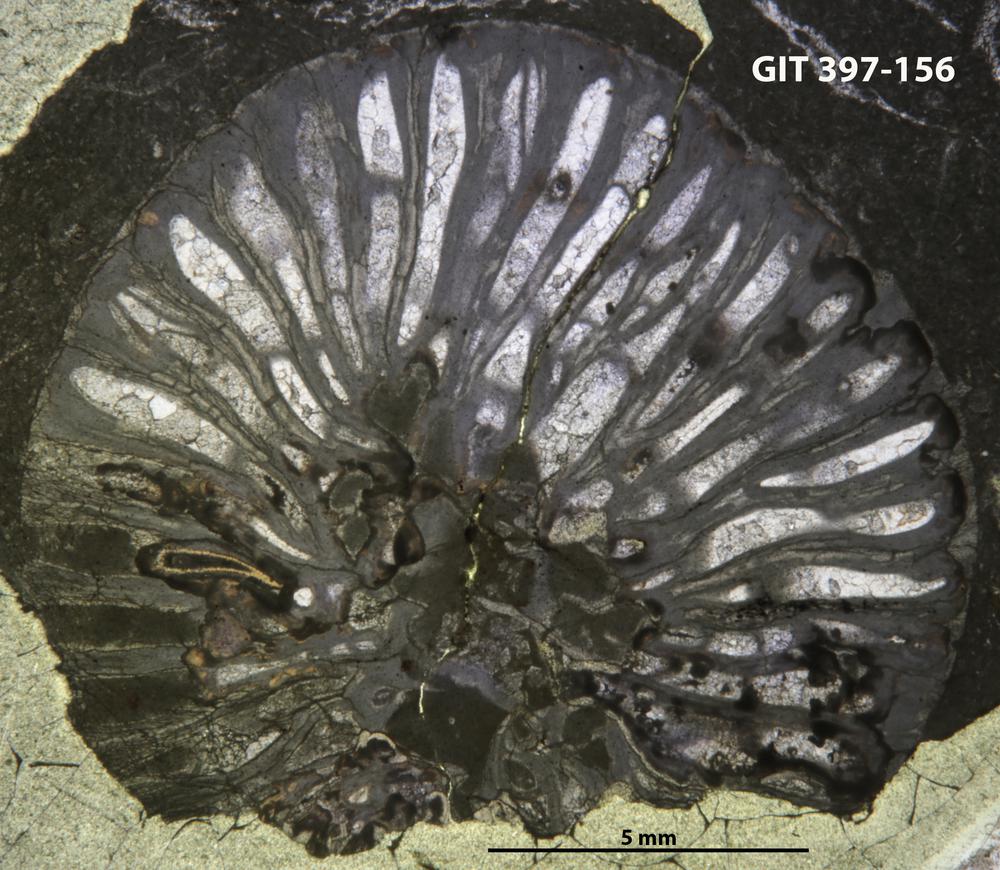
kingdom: Animalia
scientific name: Animalia
